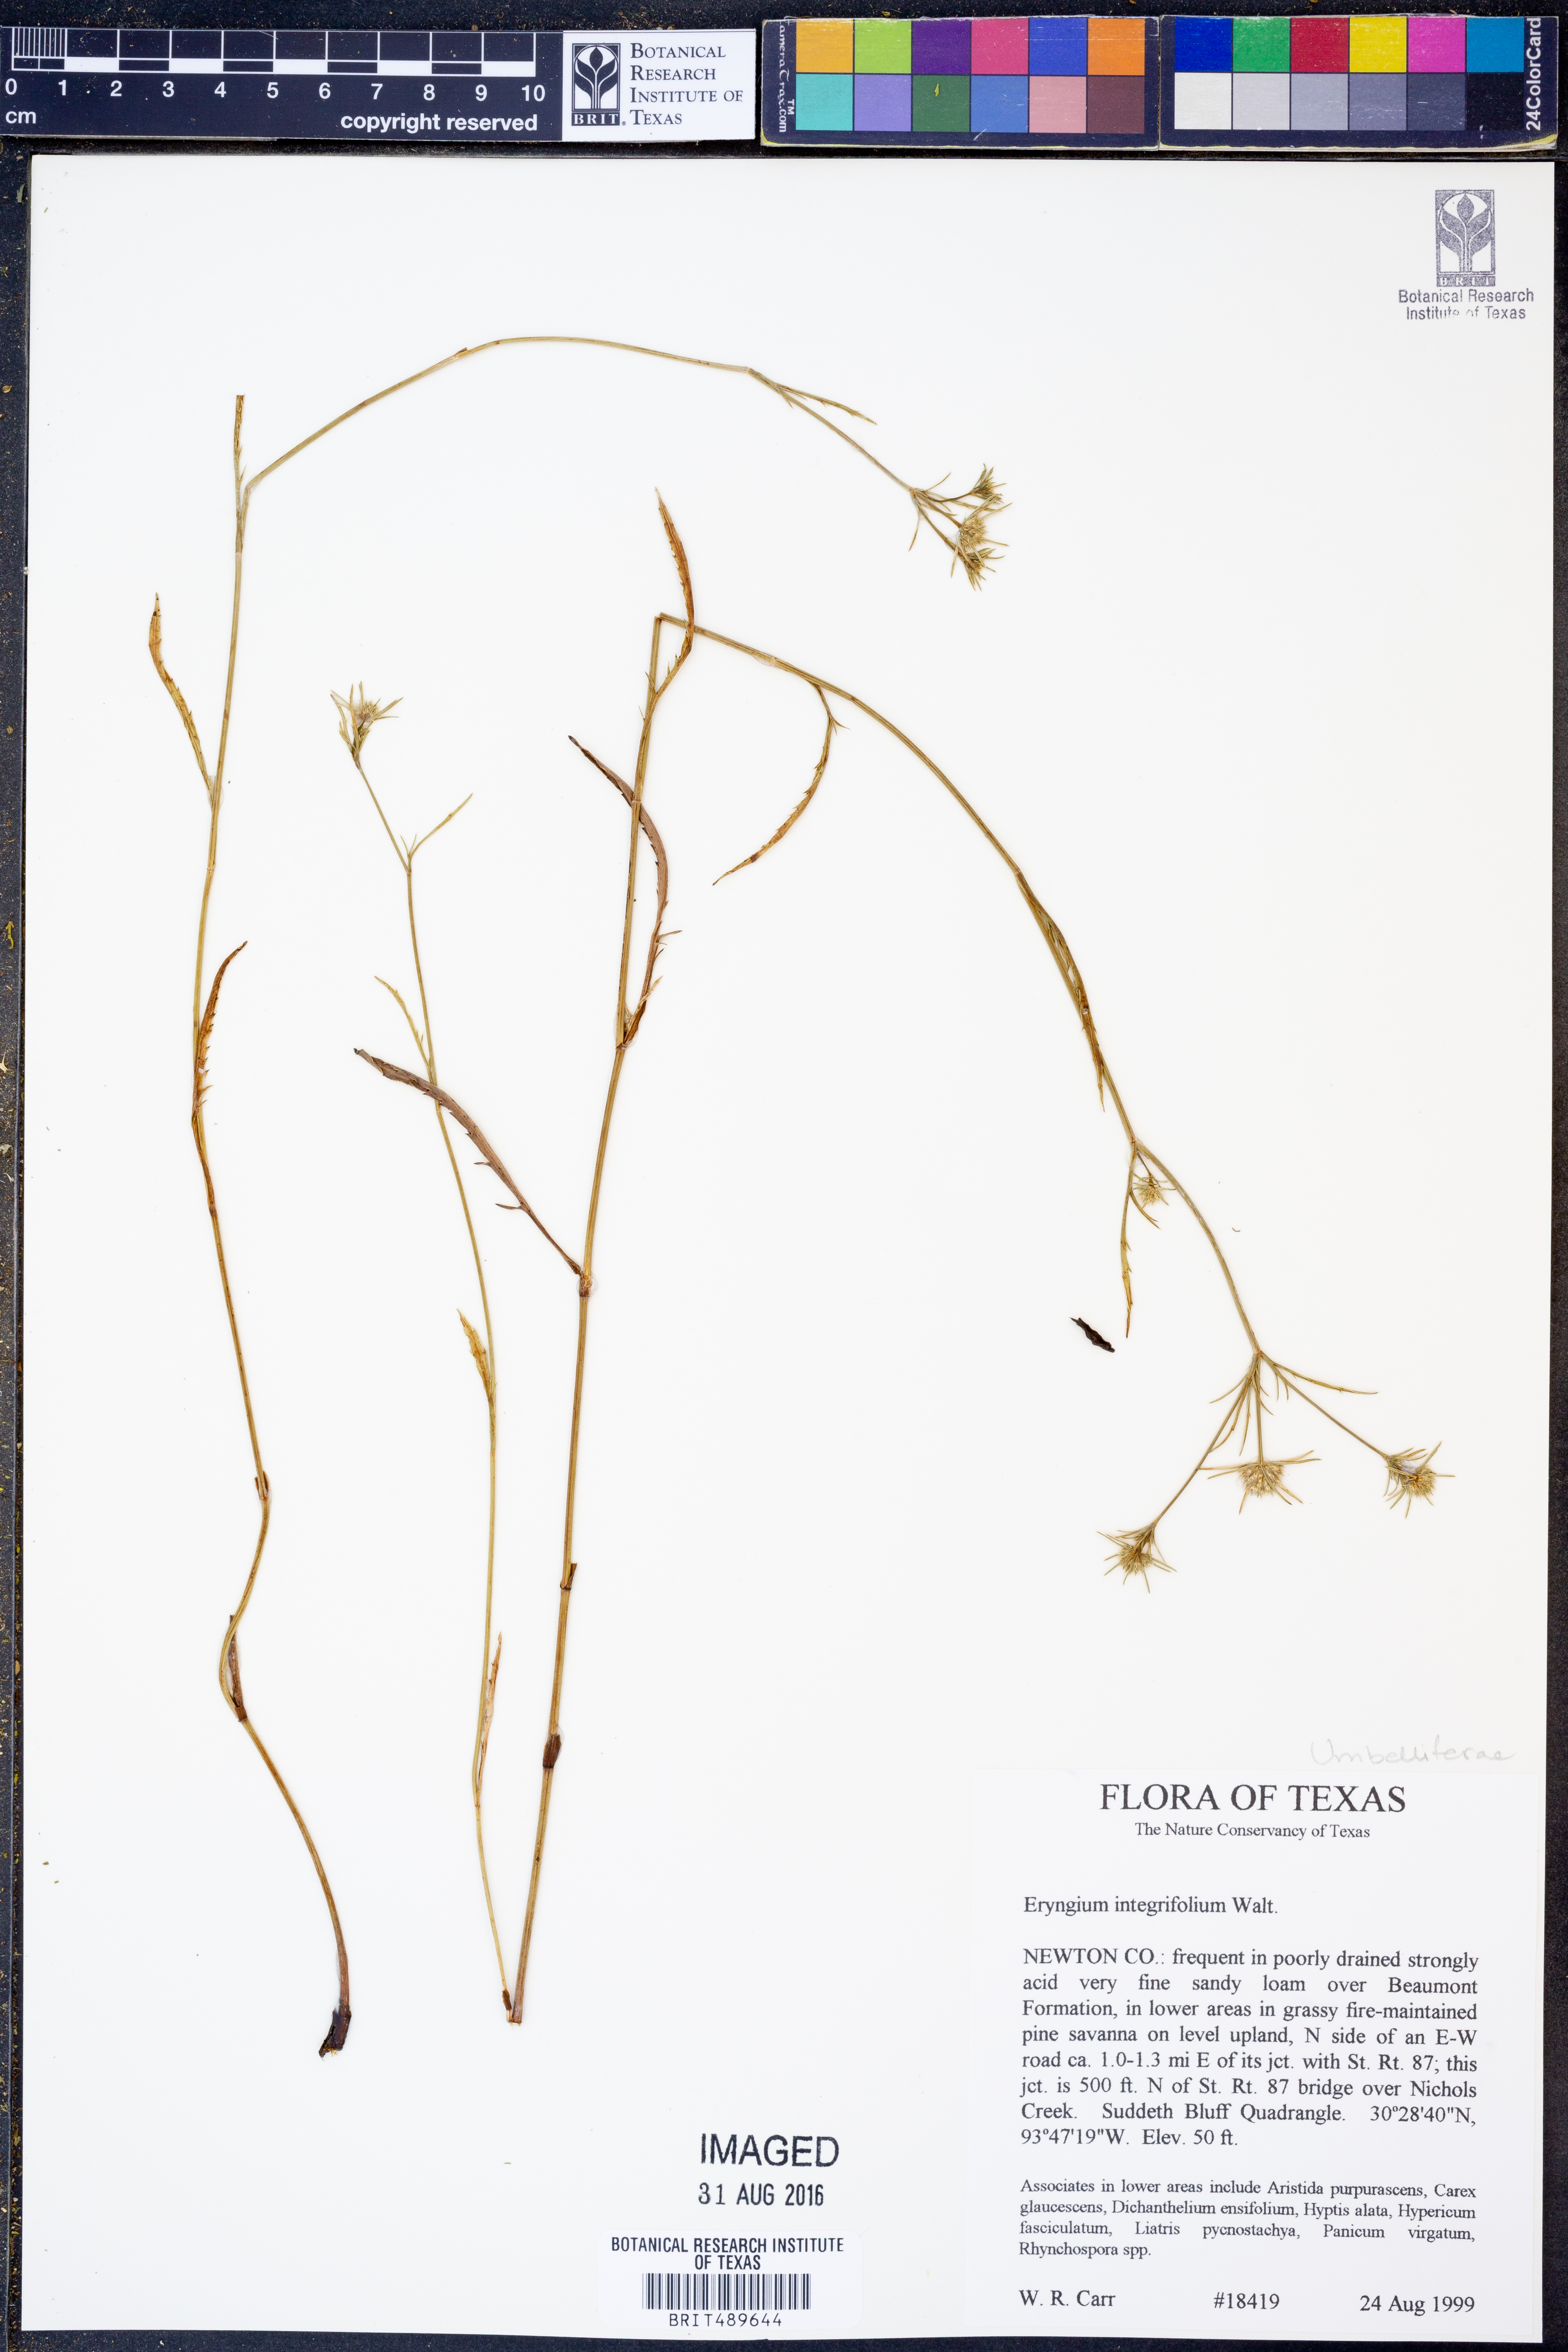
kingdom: Plantae
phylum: Tracheophyta
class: Magnoliopsida
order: Apiales
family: Apiaceae
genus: Eryngium
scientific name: Eryngium integrifolium
